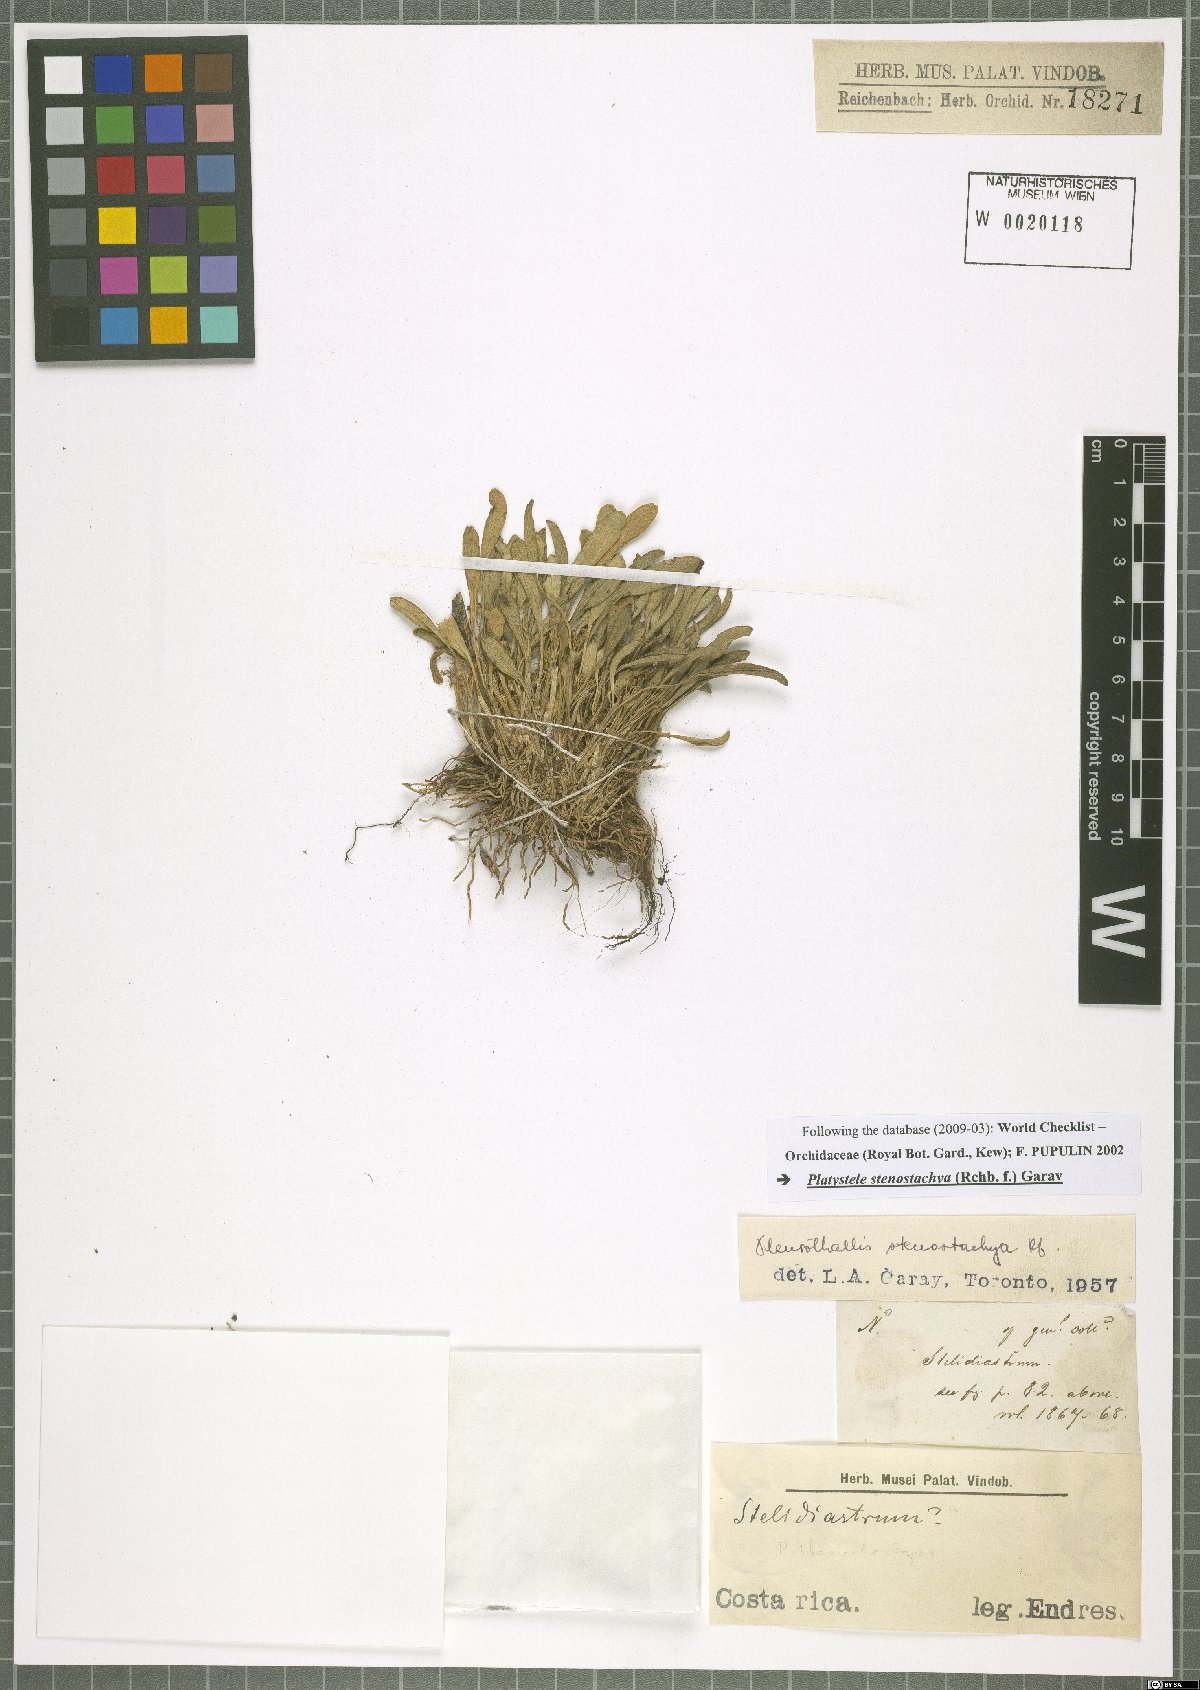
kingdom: Plantae
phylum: Tracheophyta
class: Liliopsida
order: Asparagales
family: Orchidaceae
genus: Platystele
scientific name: Platystele stenostachya
